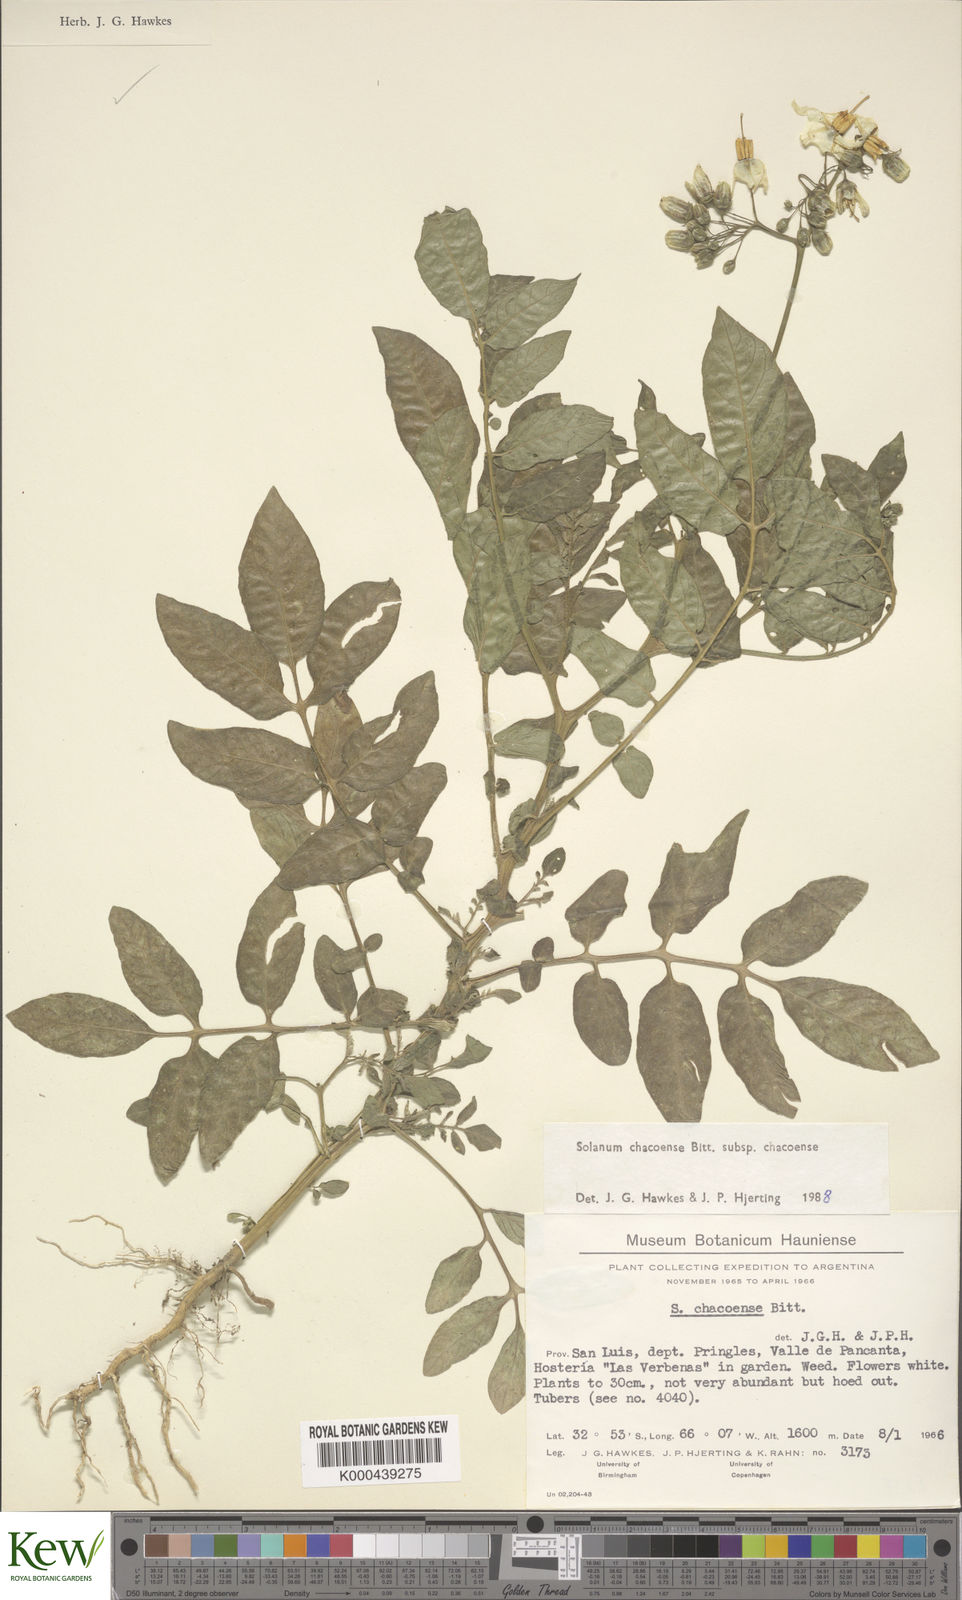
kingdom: Plantae
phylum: Tracheophyta
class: Magnoliopsida
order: Solanales
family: Solanaceae
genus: Solanum
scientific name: Solanum chacoense
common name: Chaco potato
